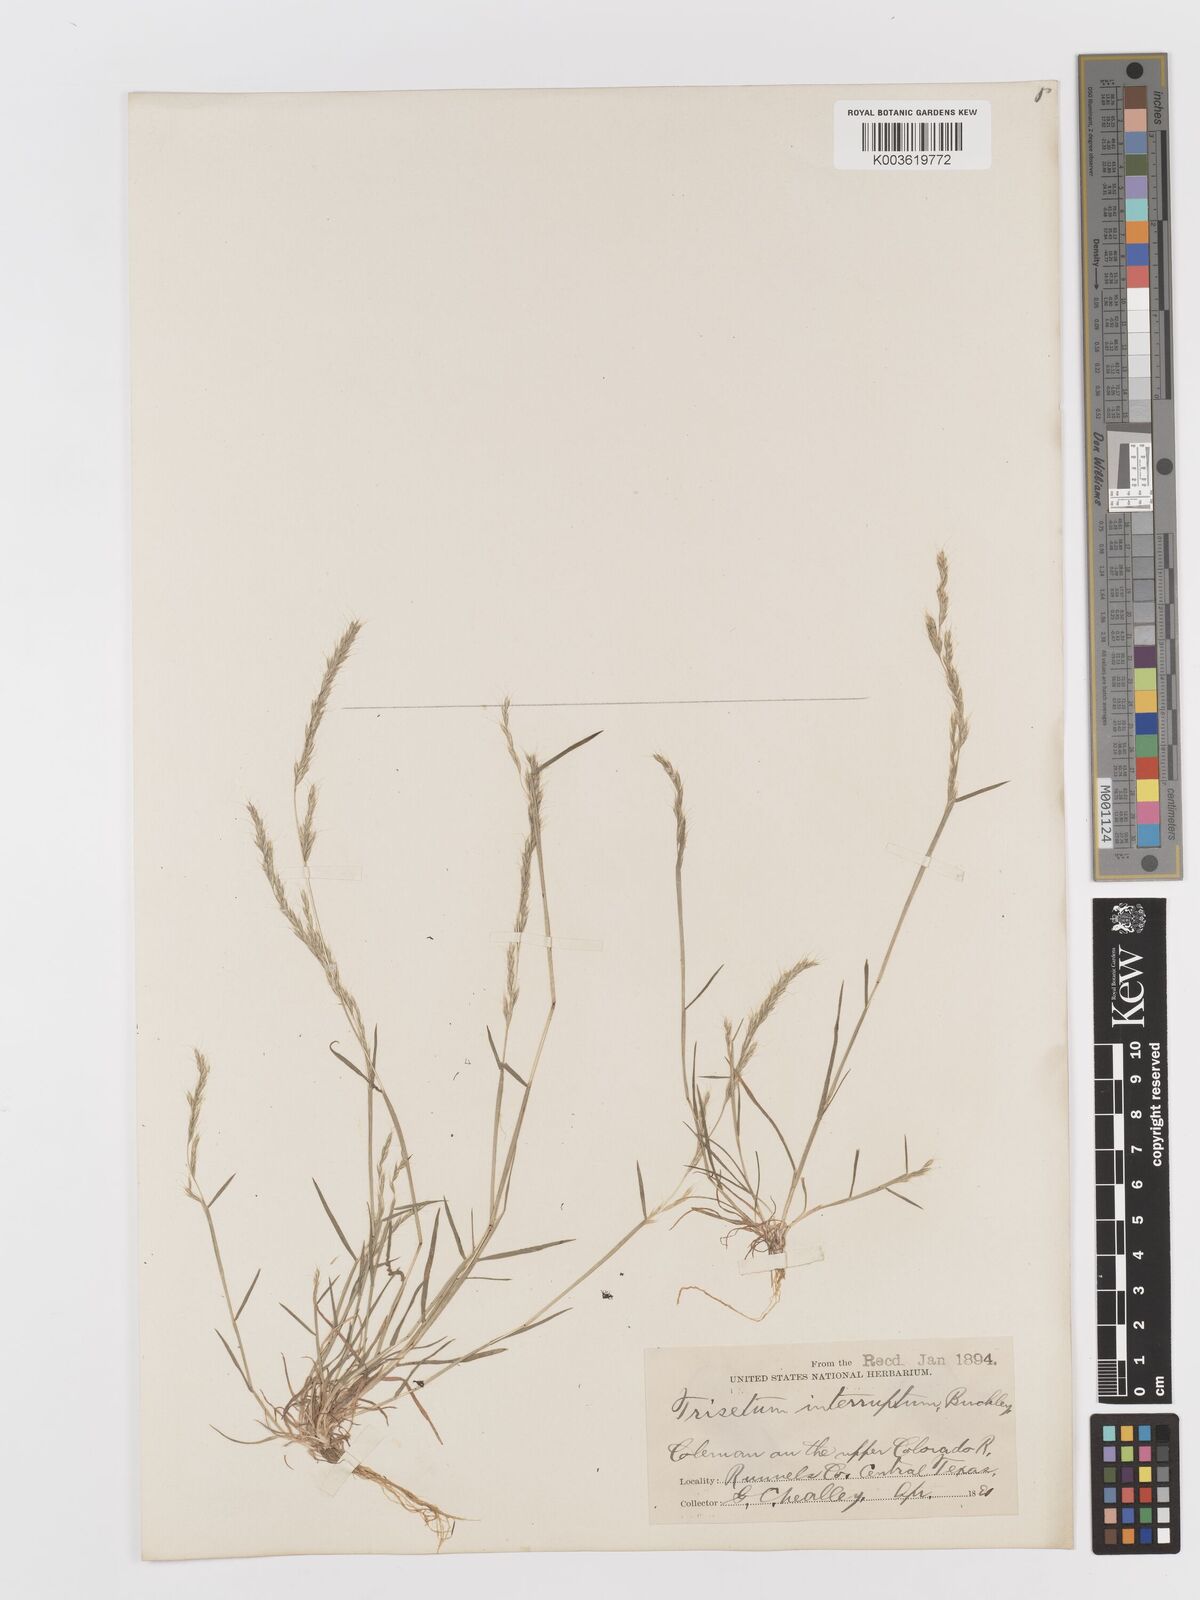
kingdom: Plantae
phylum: Tracheophyta
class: Liliopsida
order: Poales
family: Poaceae
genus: Sphenopholis
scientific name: Sphenopholis interrupta
